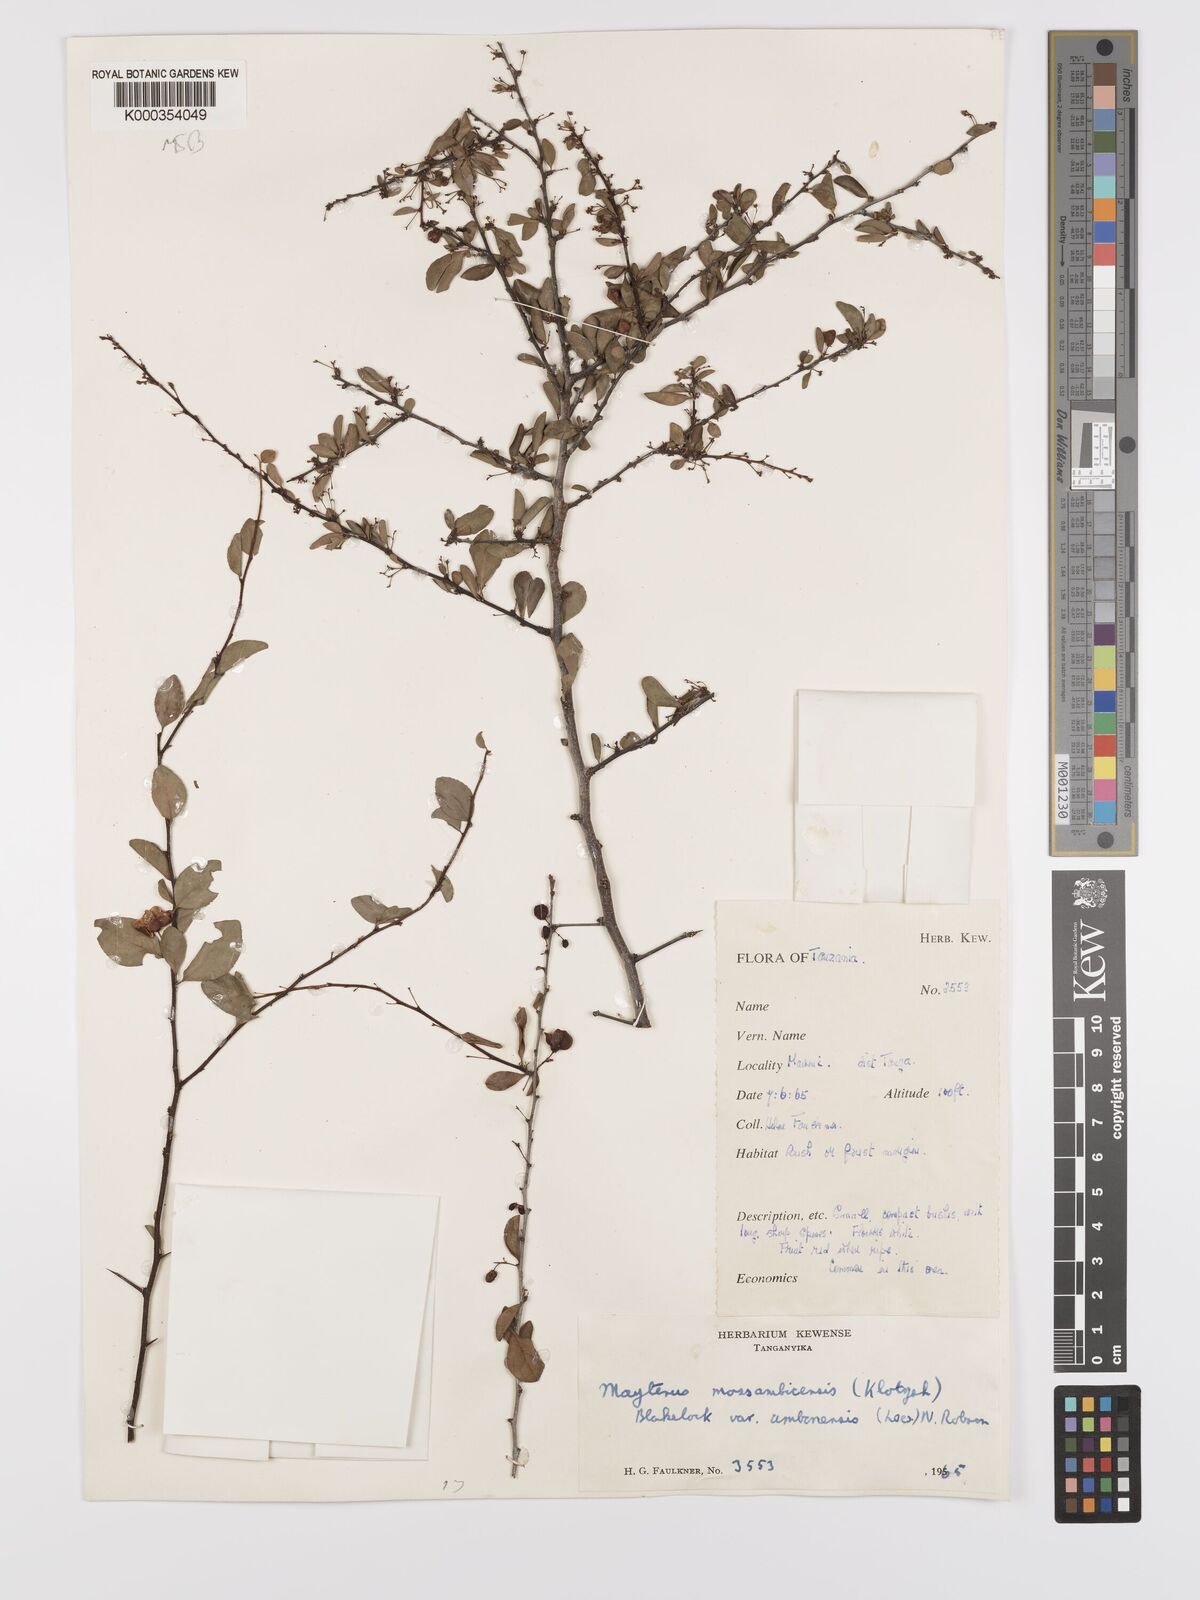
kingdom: Plantae
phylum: Tracheophyta
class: Magnoliopsida
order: Celastrales
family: Celastraceae
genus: Gymnosporia
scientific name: Gymnosporia mossambicensis
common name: Black forest spike-thorn
